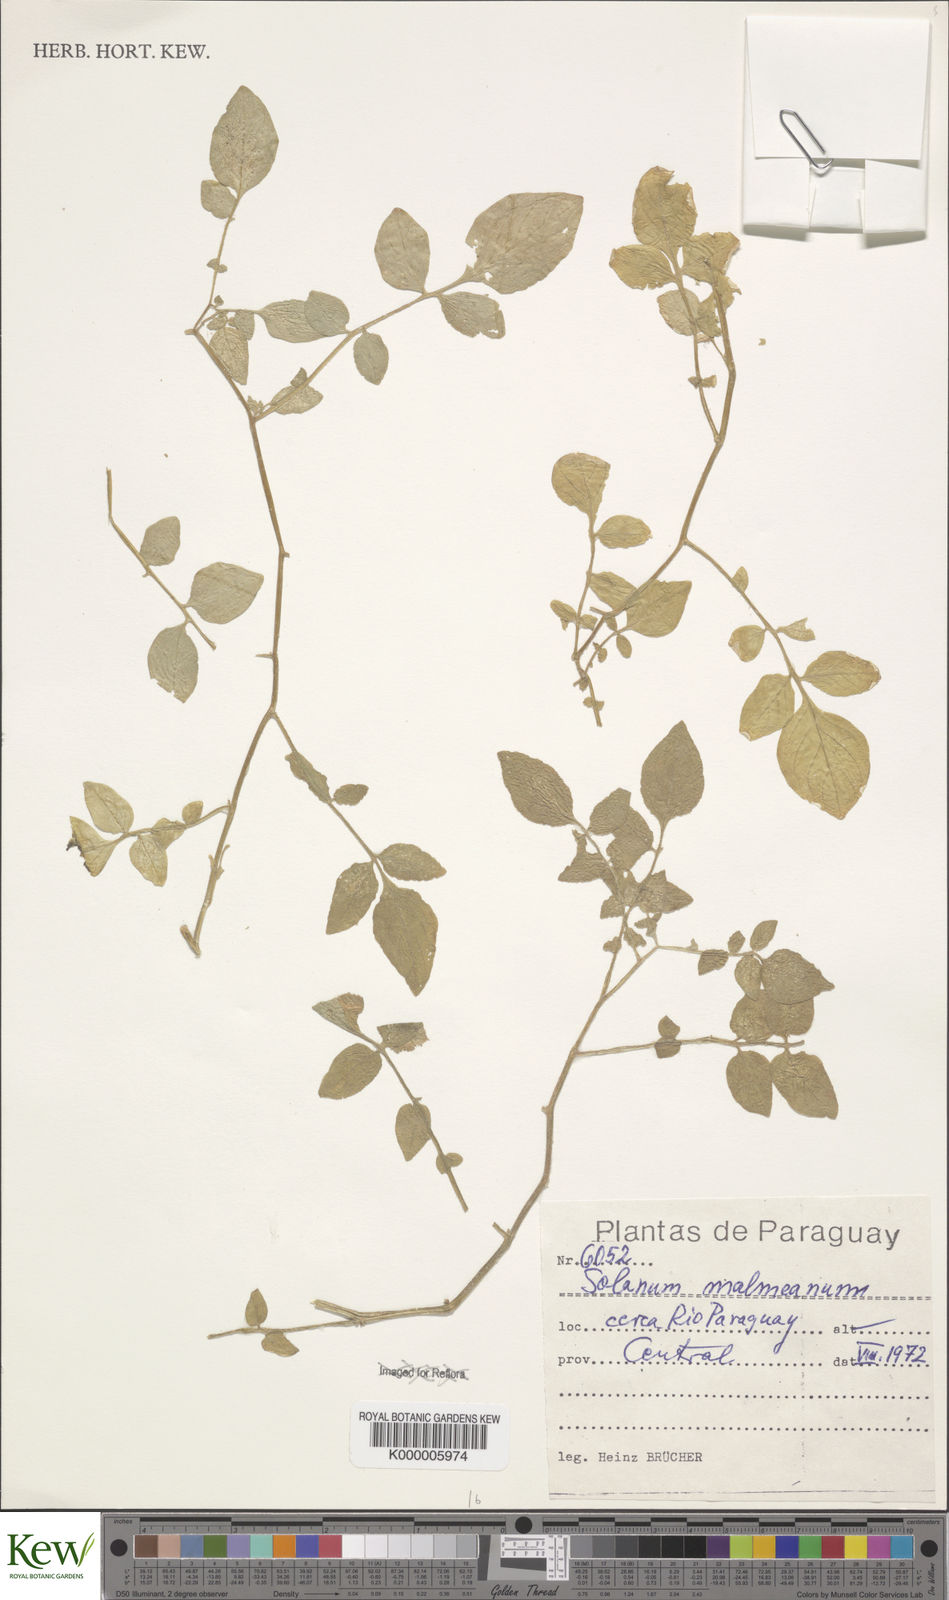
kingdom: Plantae
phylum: Tracheophyta
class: Magnoliopsida
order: Solanales
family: Solanaceae
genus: Solanum
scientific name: Solanum malmeanum
